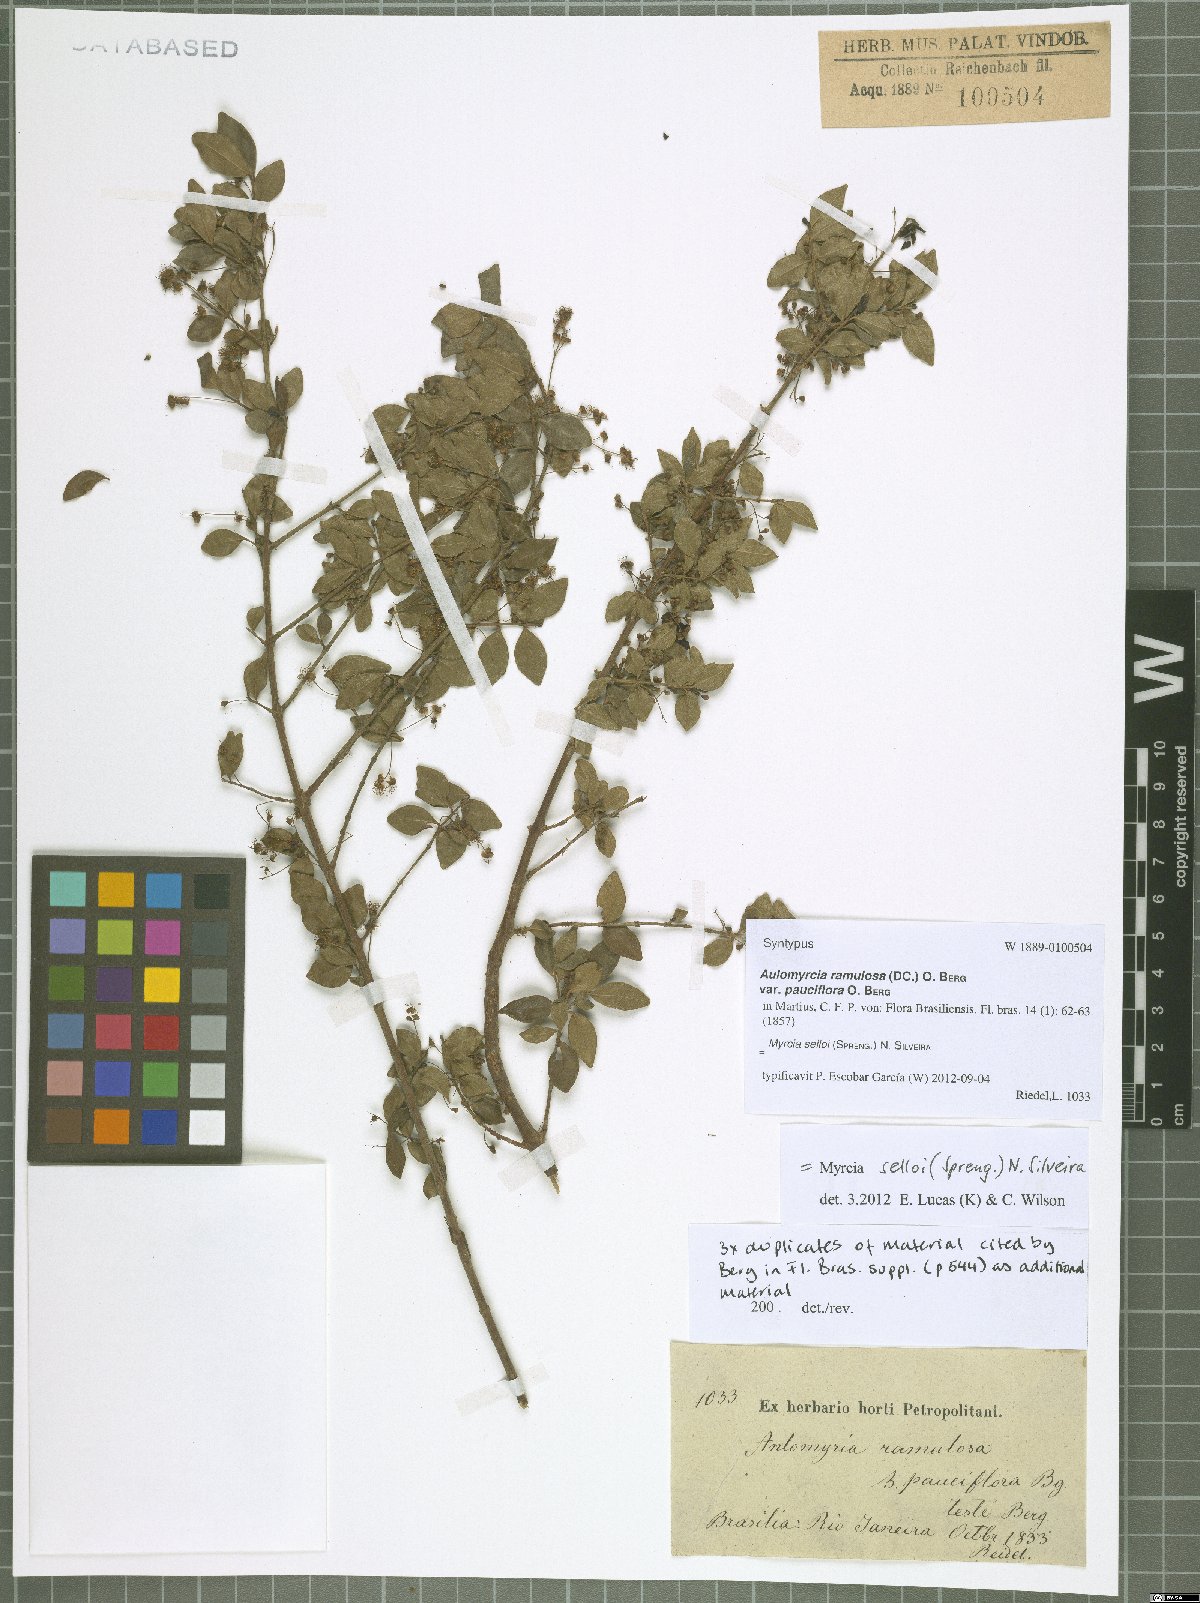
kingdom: Plantae
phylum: Tracheophyta
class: Magnoliopsida
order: Myrtales
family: Myrtaceae
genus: Myrcia
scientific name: Myrcia selloi
